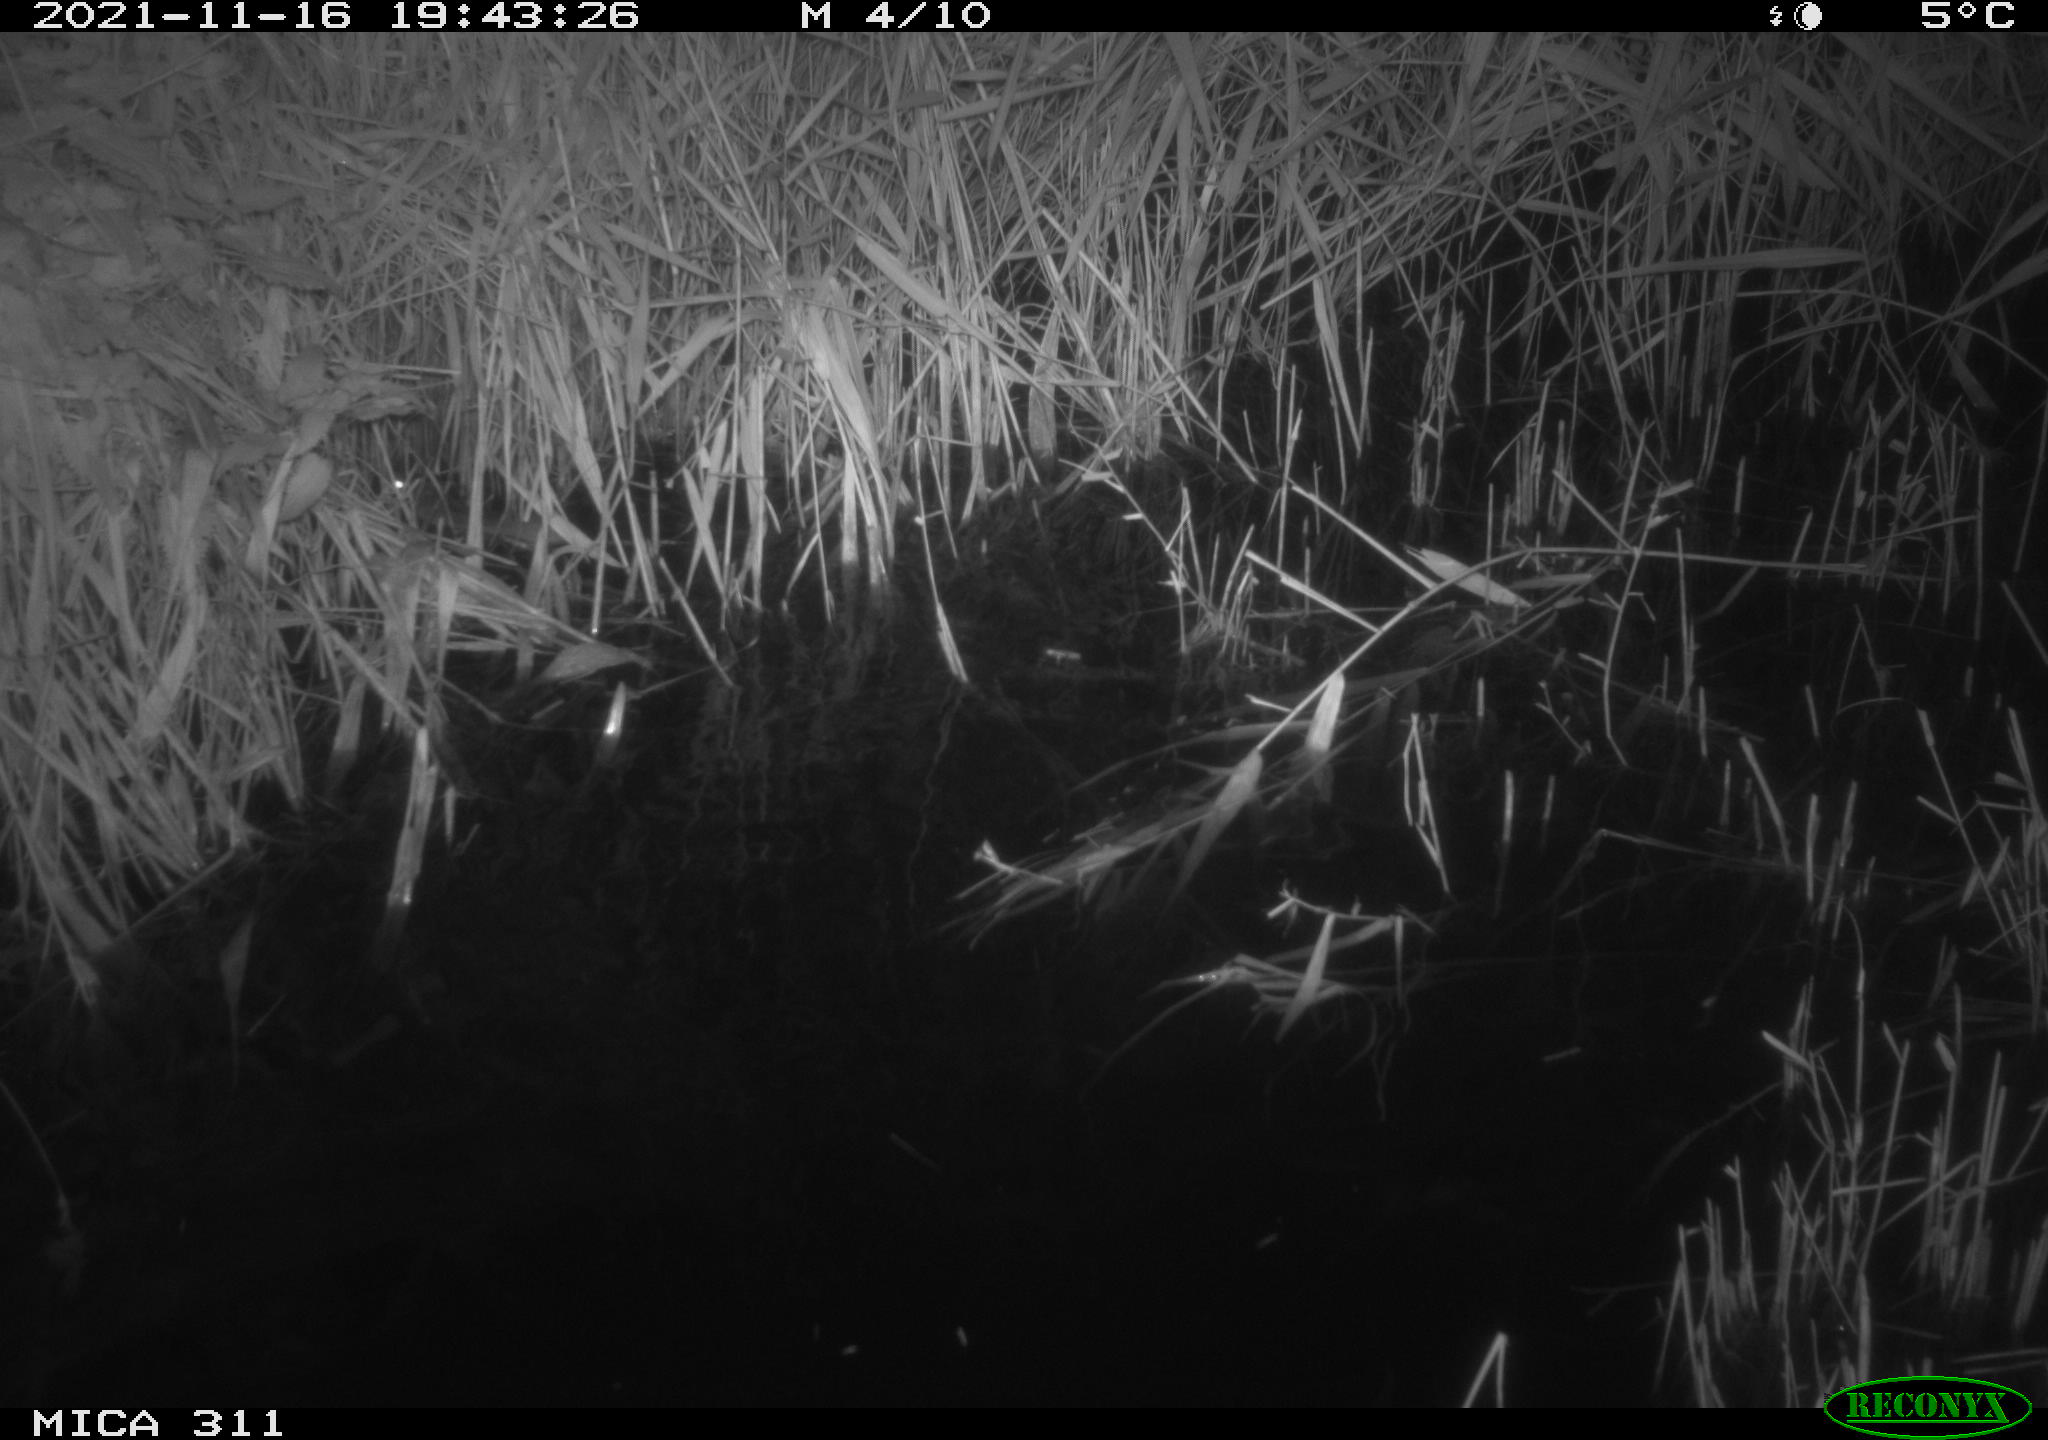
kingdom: Animalia
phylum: Chordata
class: Mammalia
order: Rodentia
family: Muridae
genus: Rattus
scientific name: Rattus norvegicus
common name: Brown rat
